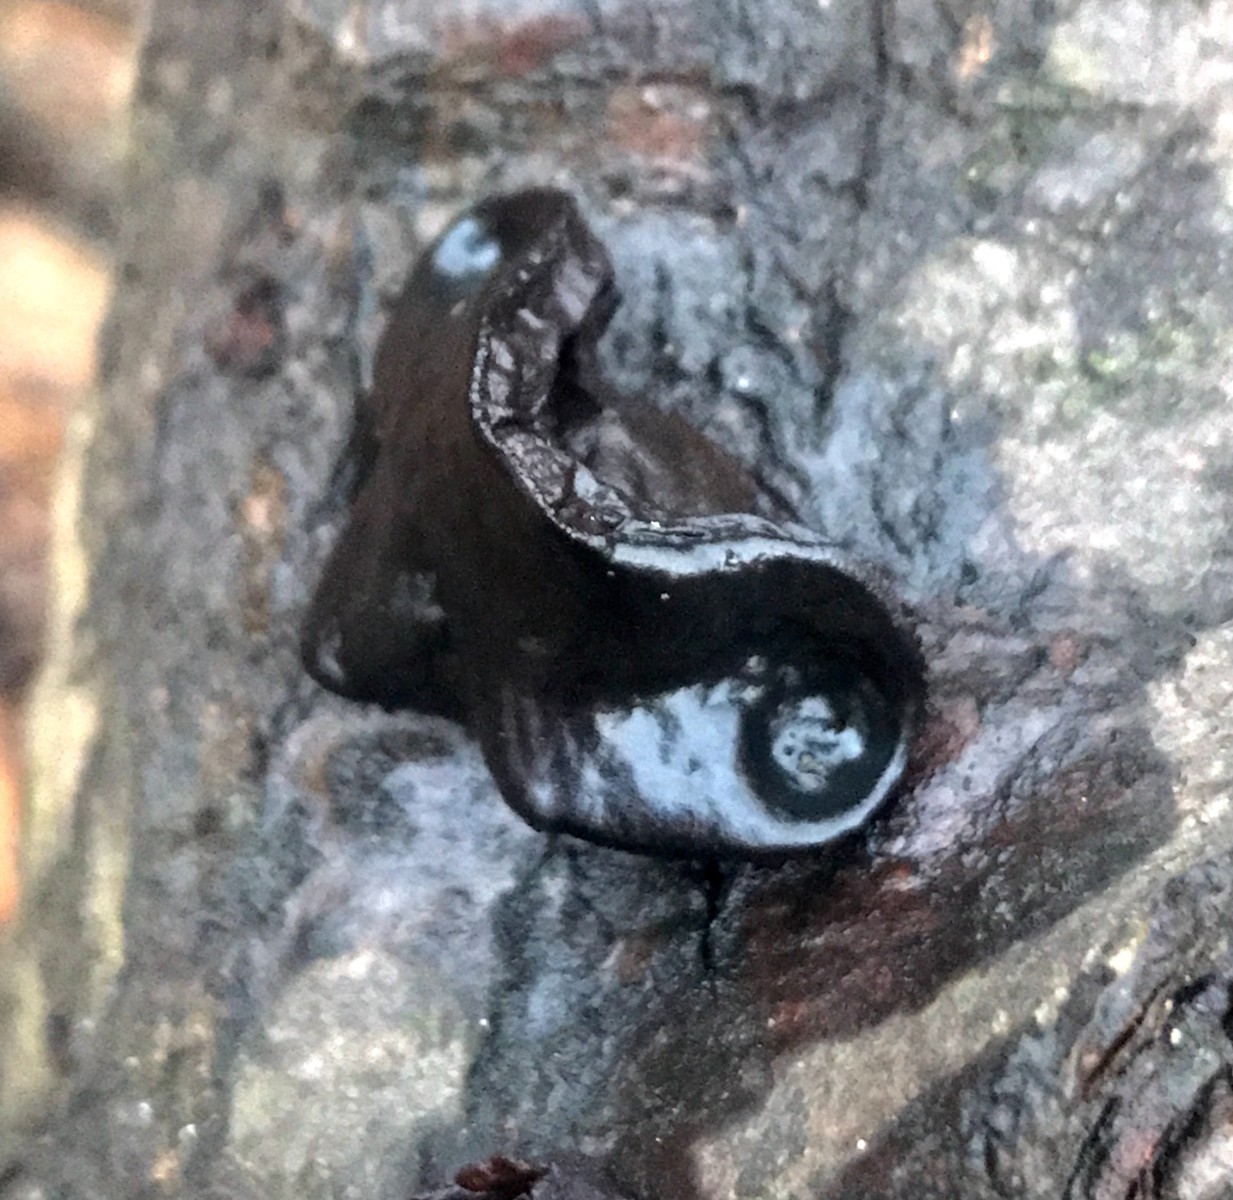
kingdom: Fungi
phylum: Basidiomycota
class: Agaricomycetes
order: Auriculariales
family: Auriculariaceae
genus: Exidia
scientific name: Exidia glandulosa
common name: ege-bævretop
